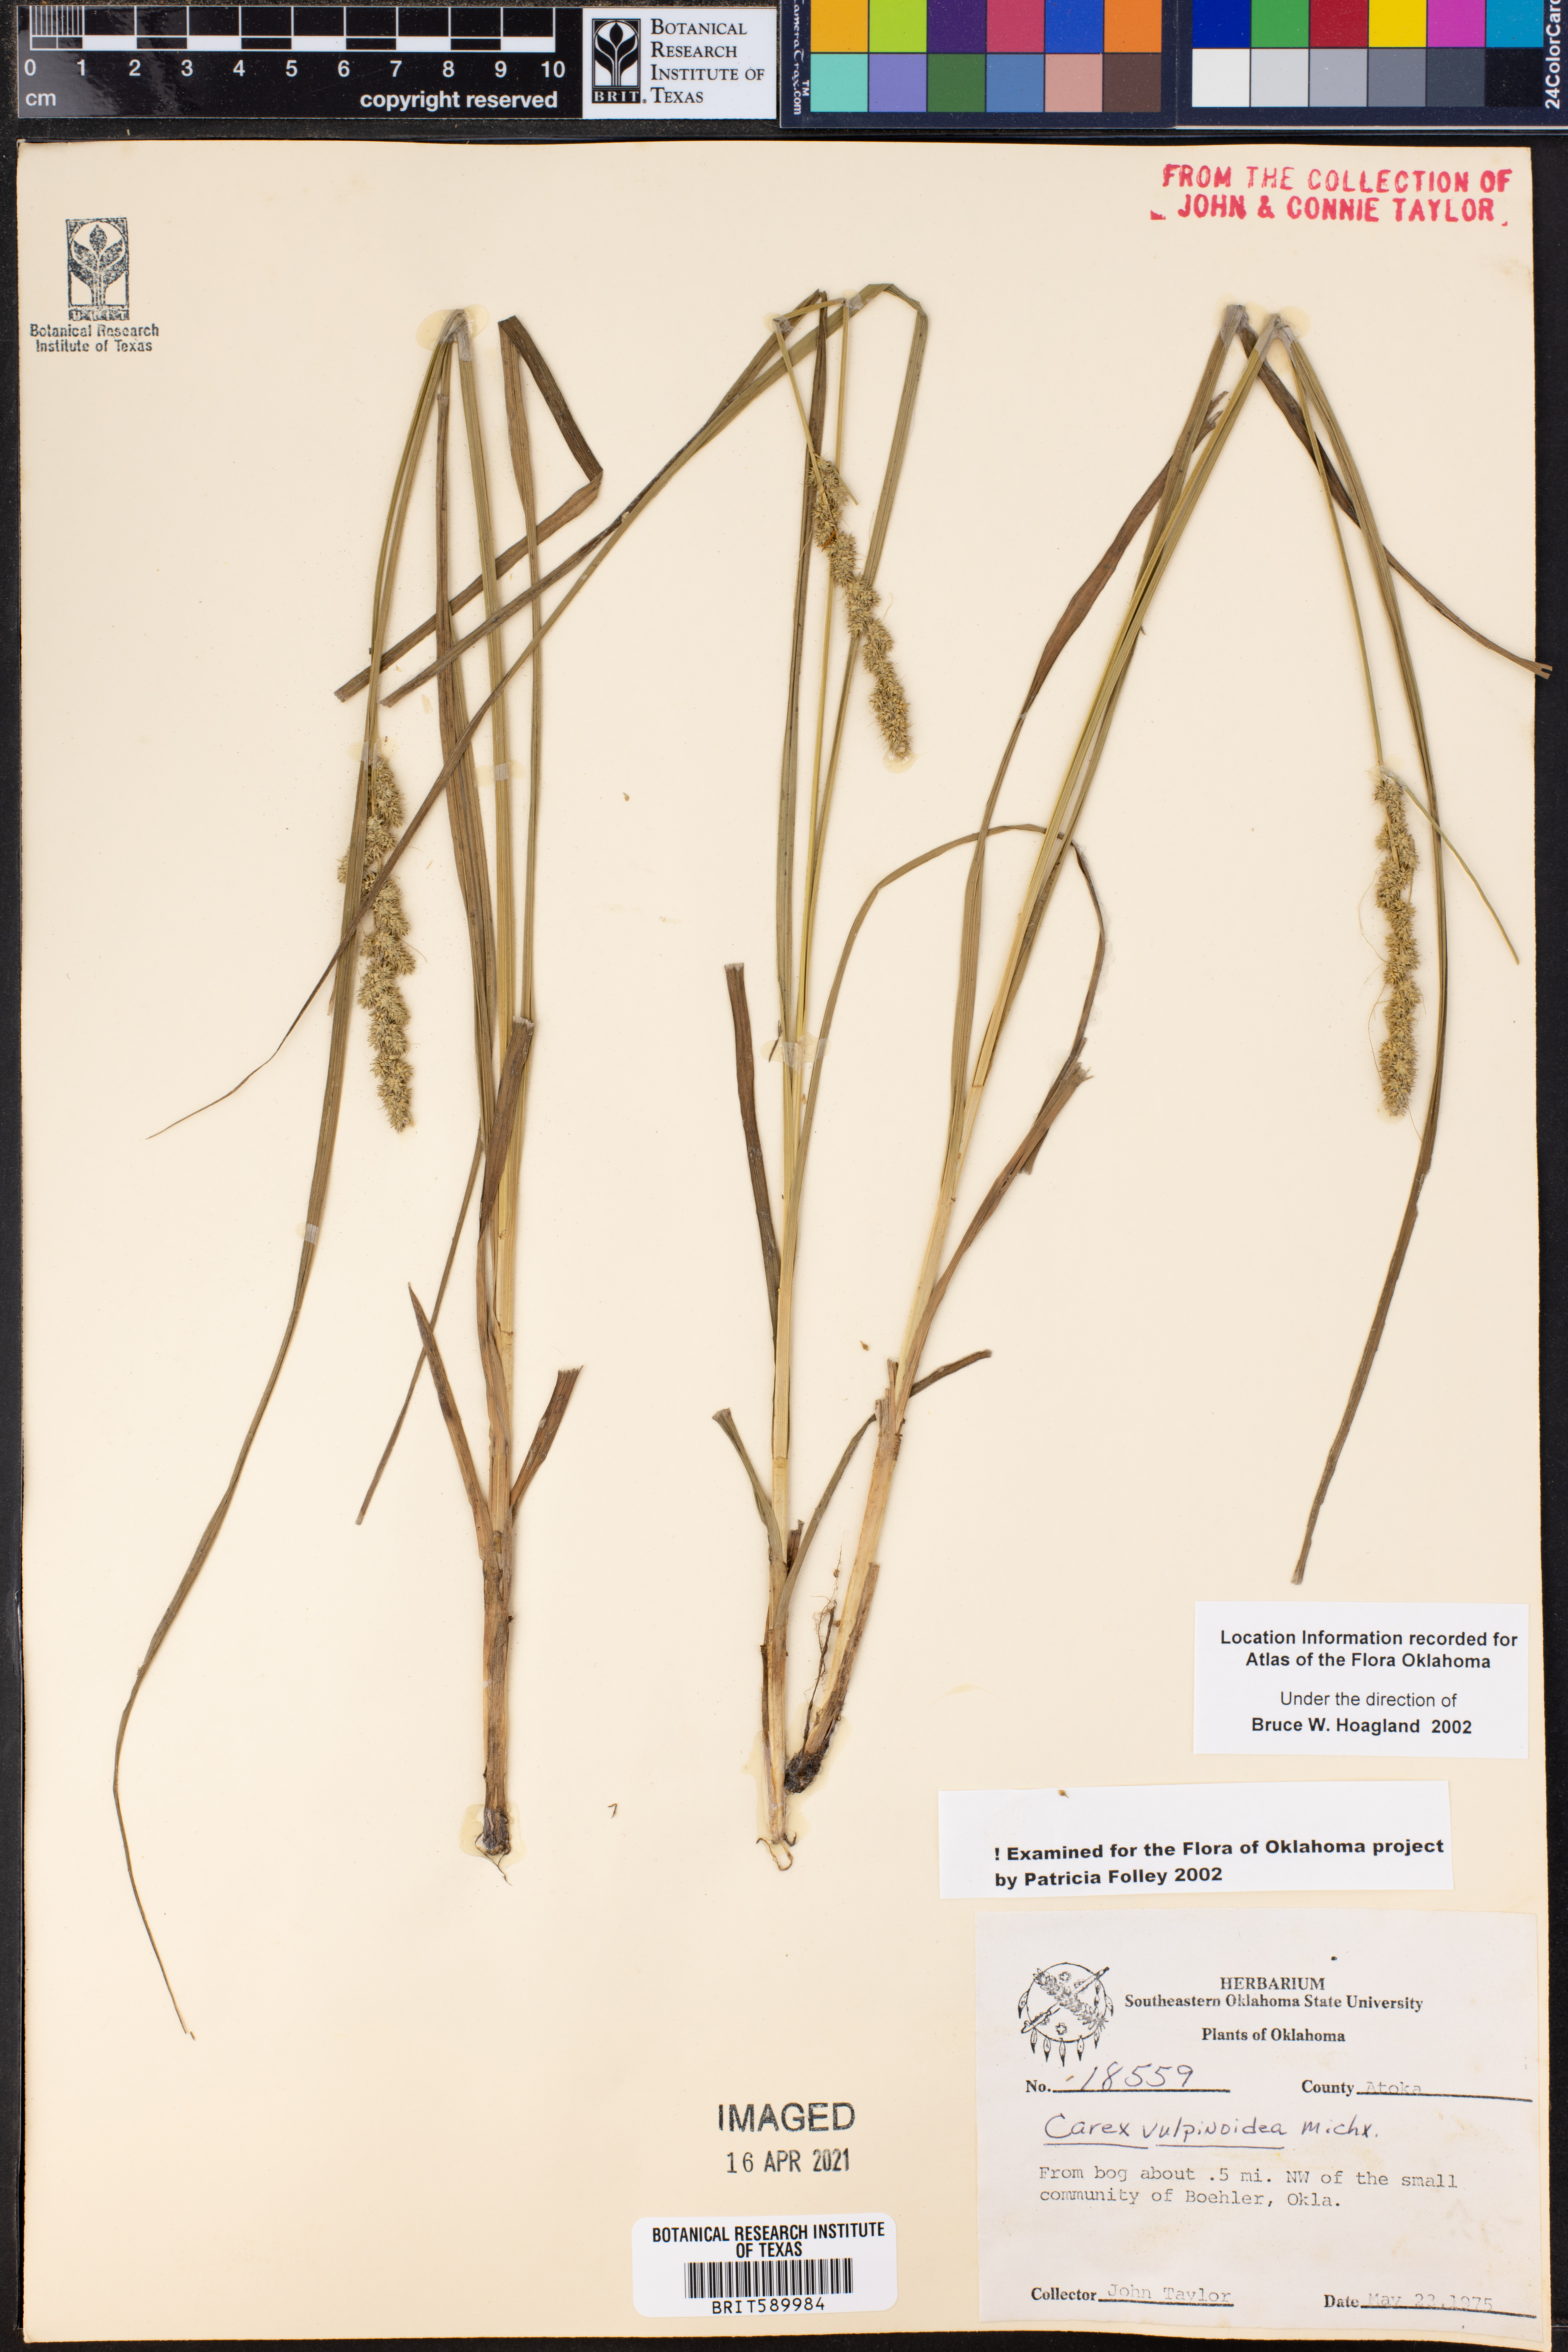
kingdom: Plantae
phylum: Tracheophyta
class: Liliopsida
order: Poales
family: Cyperaceae
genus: Carex
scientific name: Carex vulpinoidea
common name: American fox-sedge
